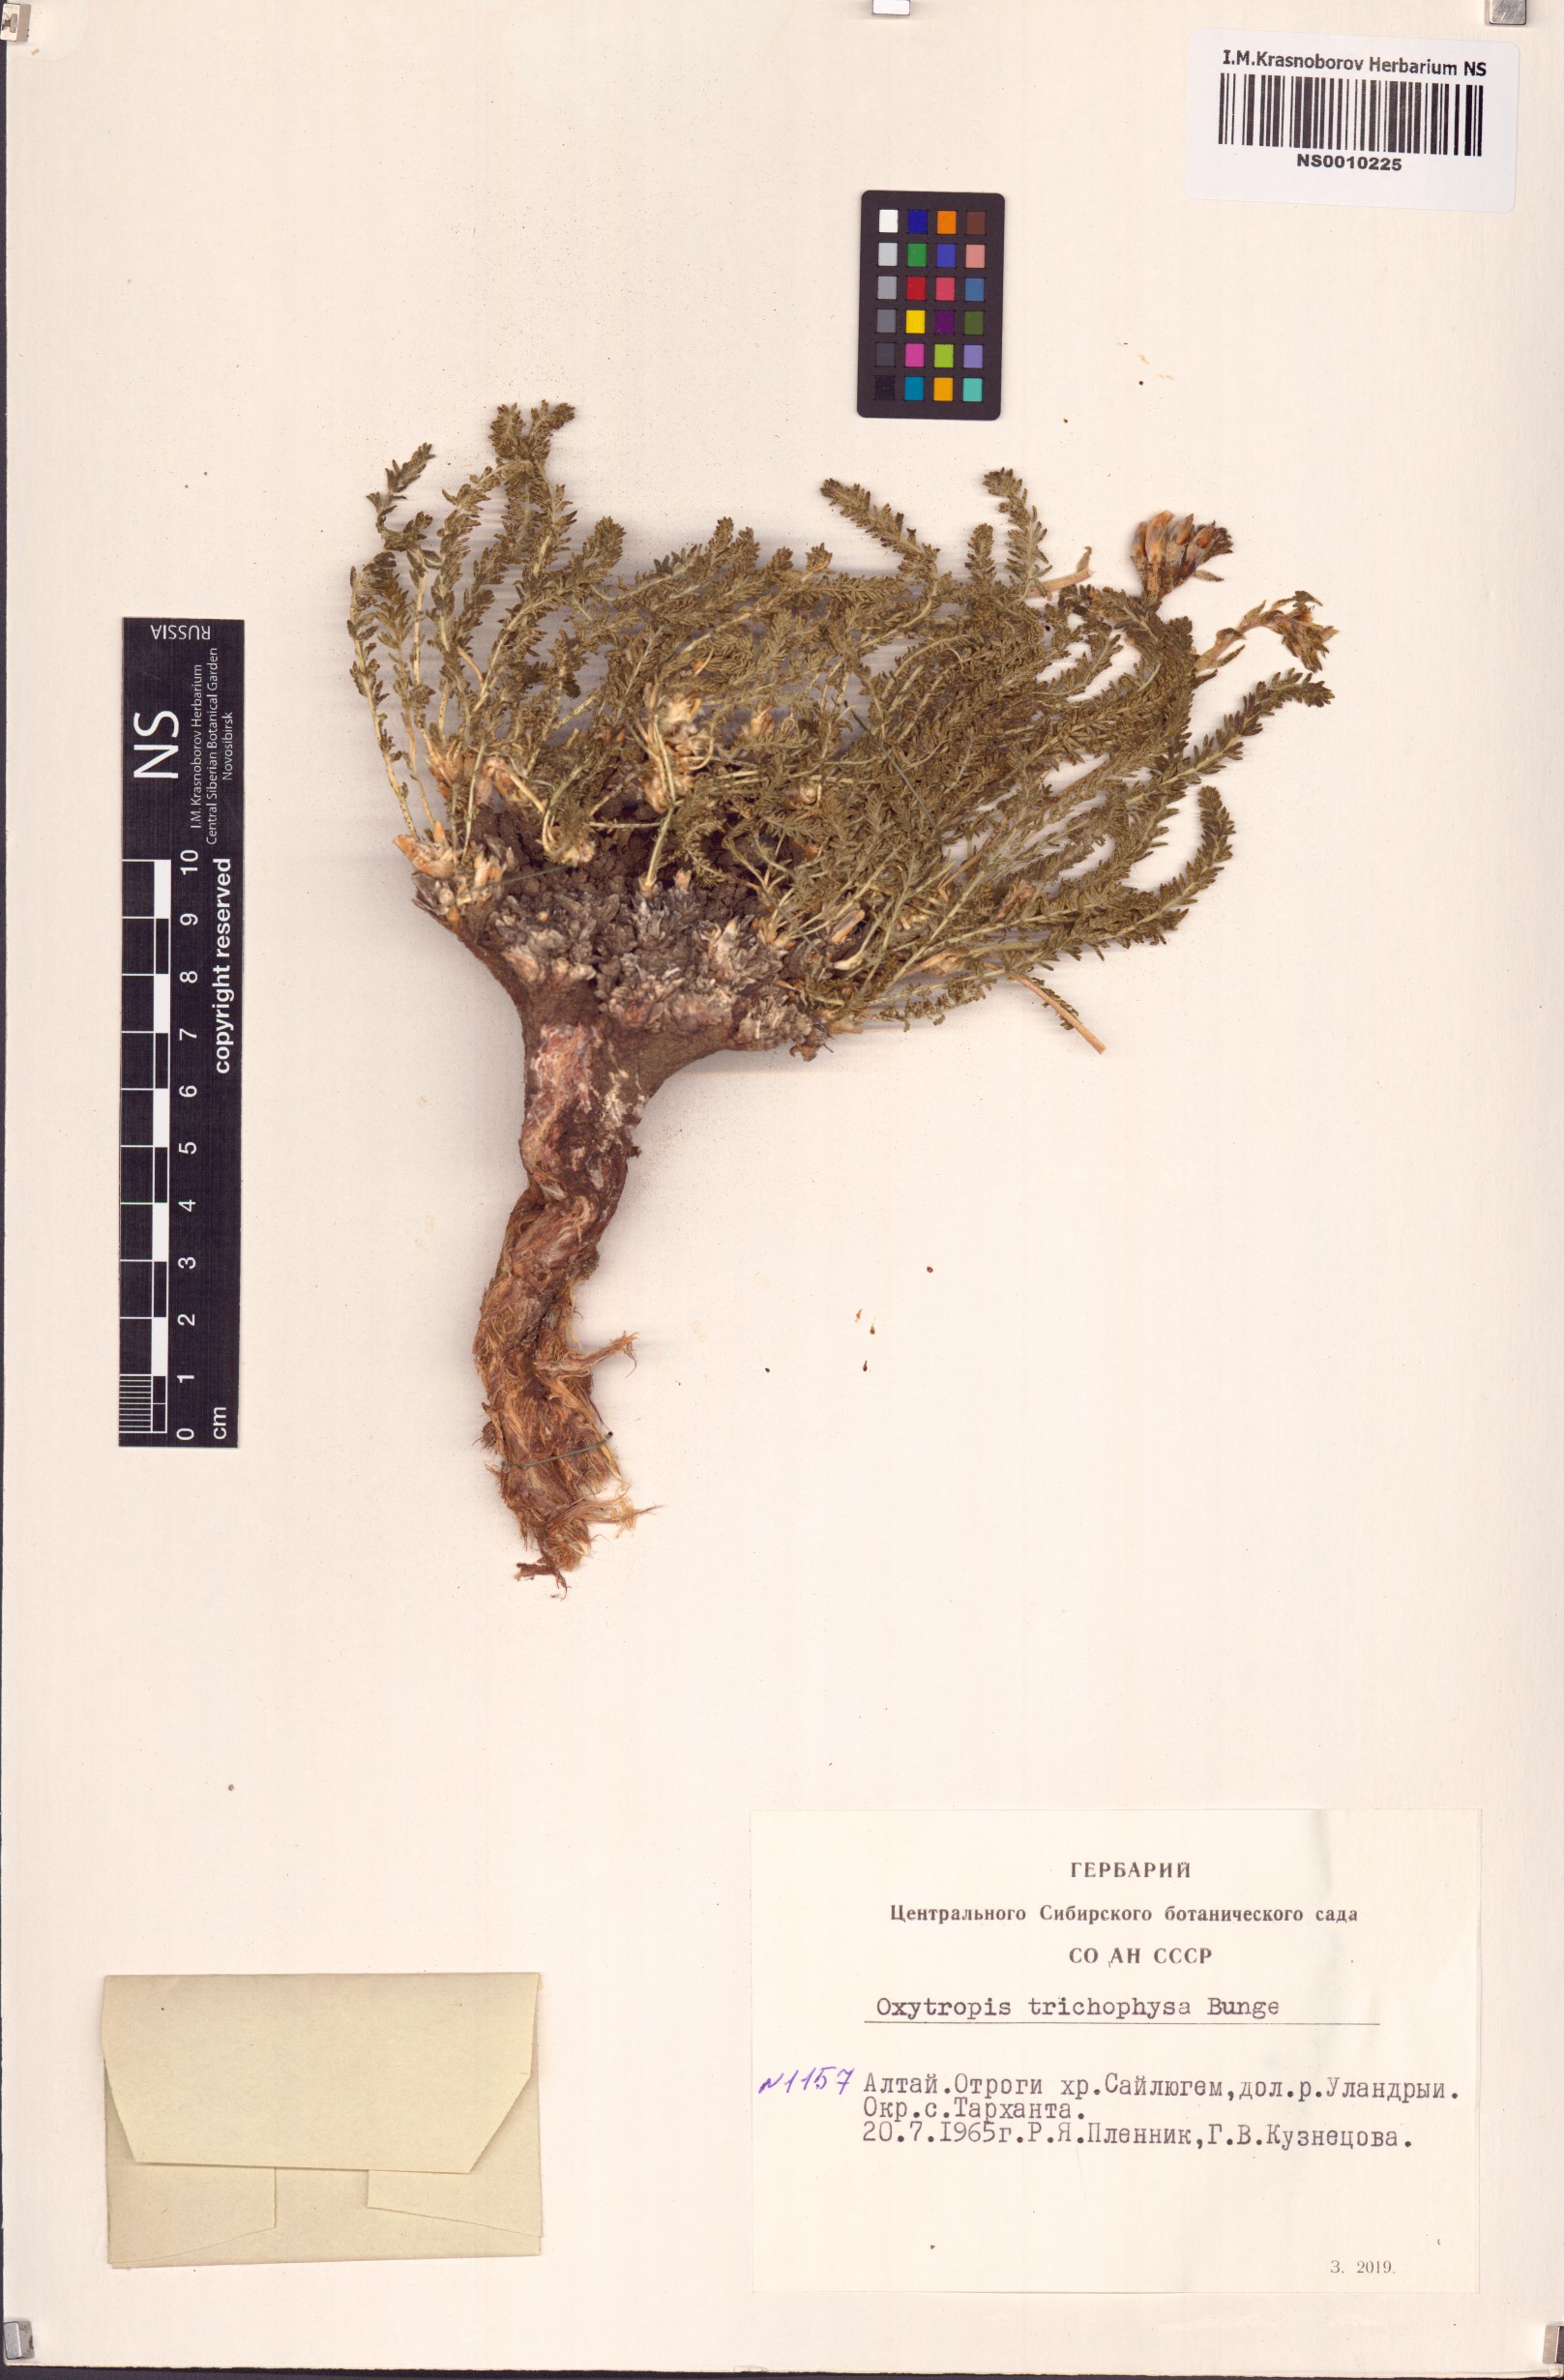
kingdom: Plantae
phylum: Tracheophyta
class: Magnoliopsida
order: Fabales
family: Fabaceae
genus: Oxytropis
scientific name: Oxytropis trichophysa
